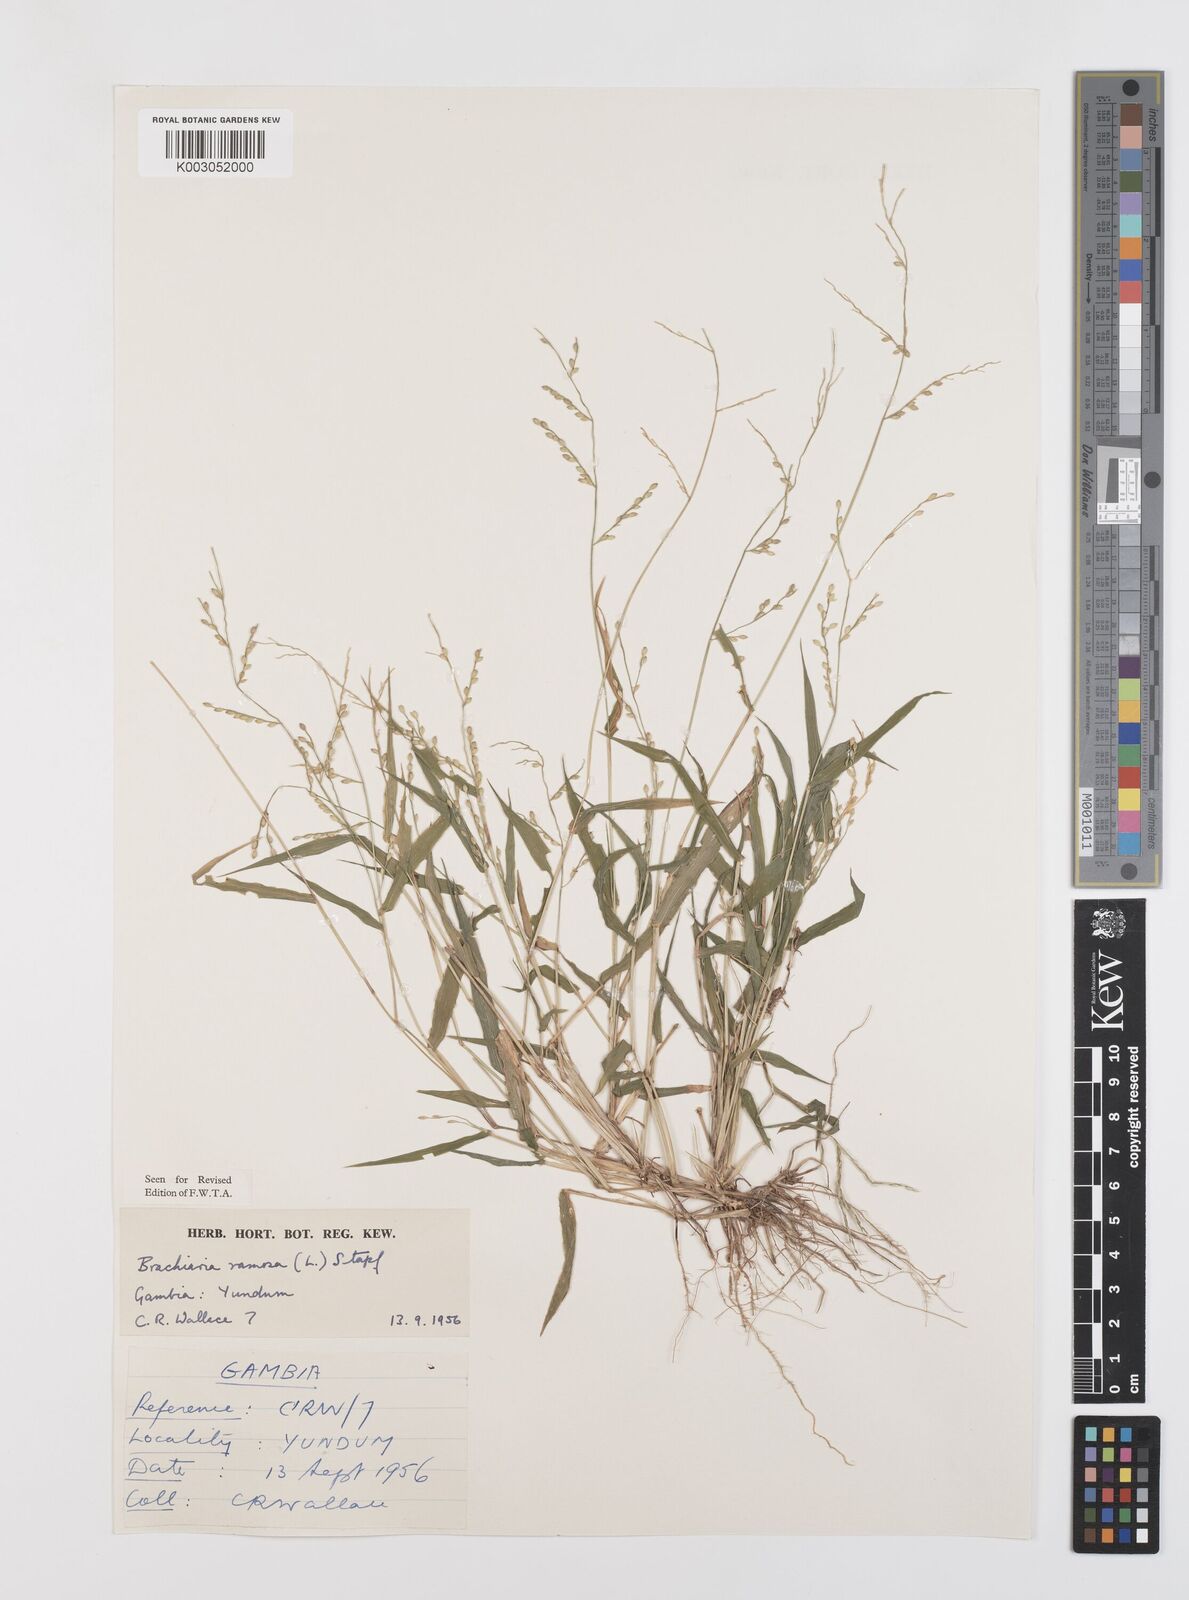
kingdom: Plantae
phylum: Tracheophyta
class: Liliopsida
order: Poales
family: Poaceae
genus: Urochloa
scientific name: Urochloa ramosa
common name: Browntop millet
